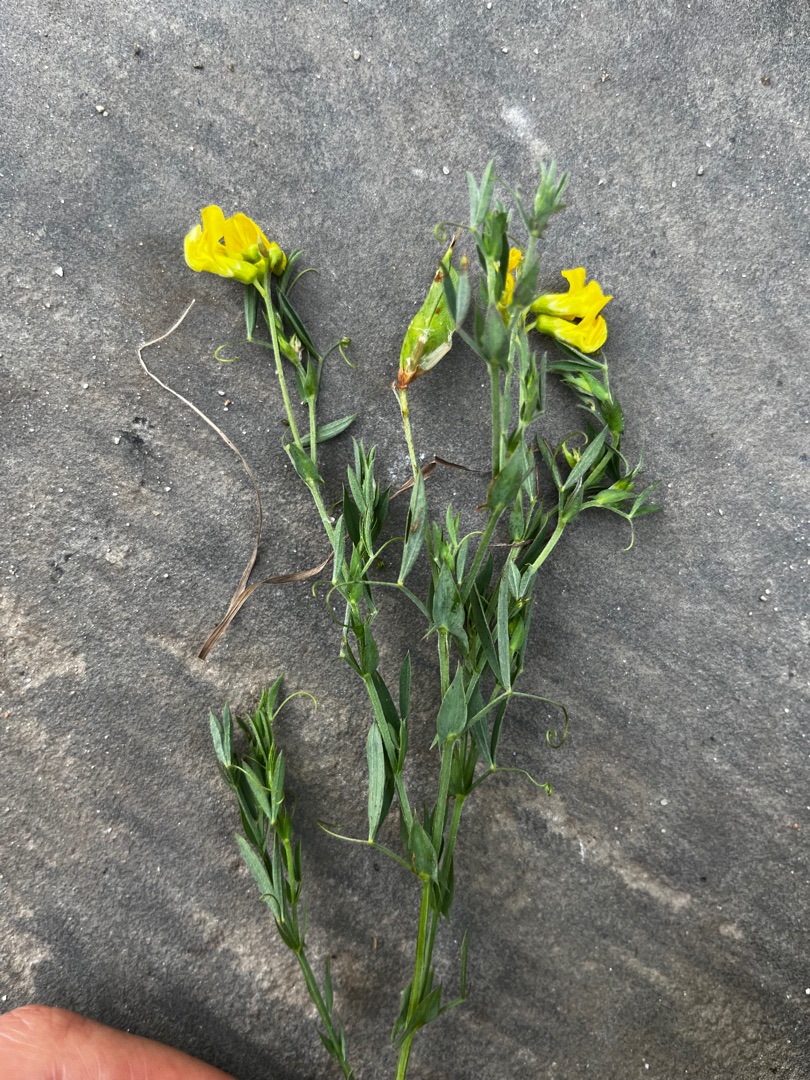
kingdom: Plantae
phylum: Tracheophyta
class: Magnoliopsida
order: Fabales
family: Fabaceae
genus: Lathyrus
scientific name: Lathyrus pratensis
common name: Gul fladbælg
